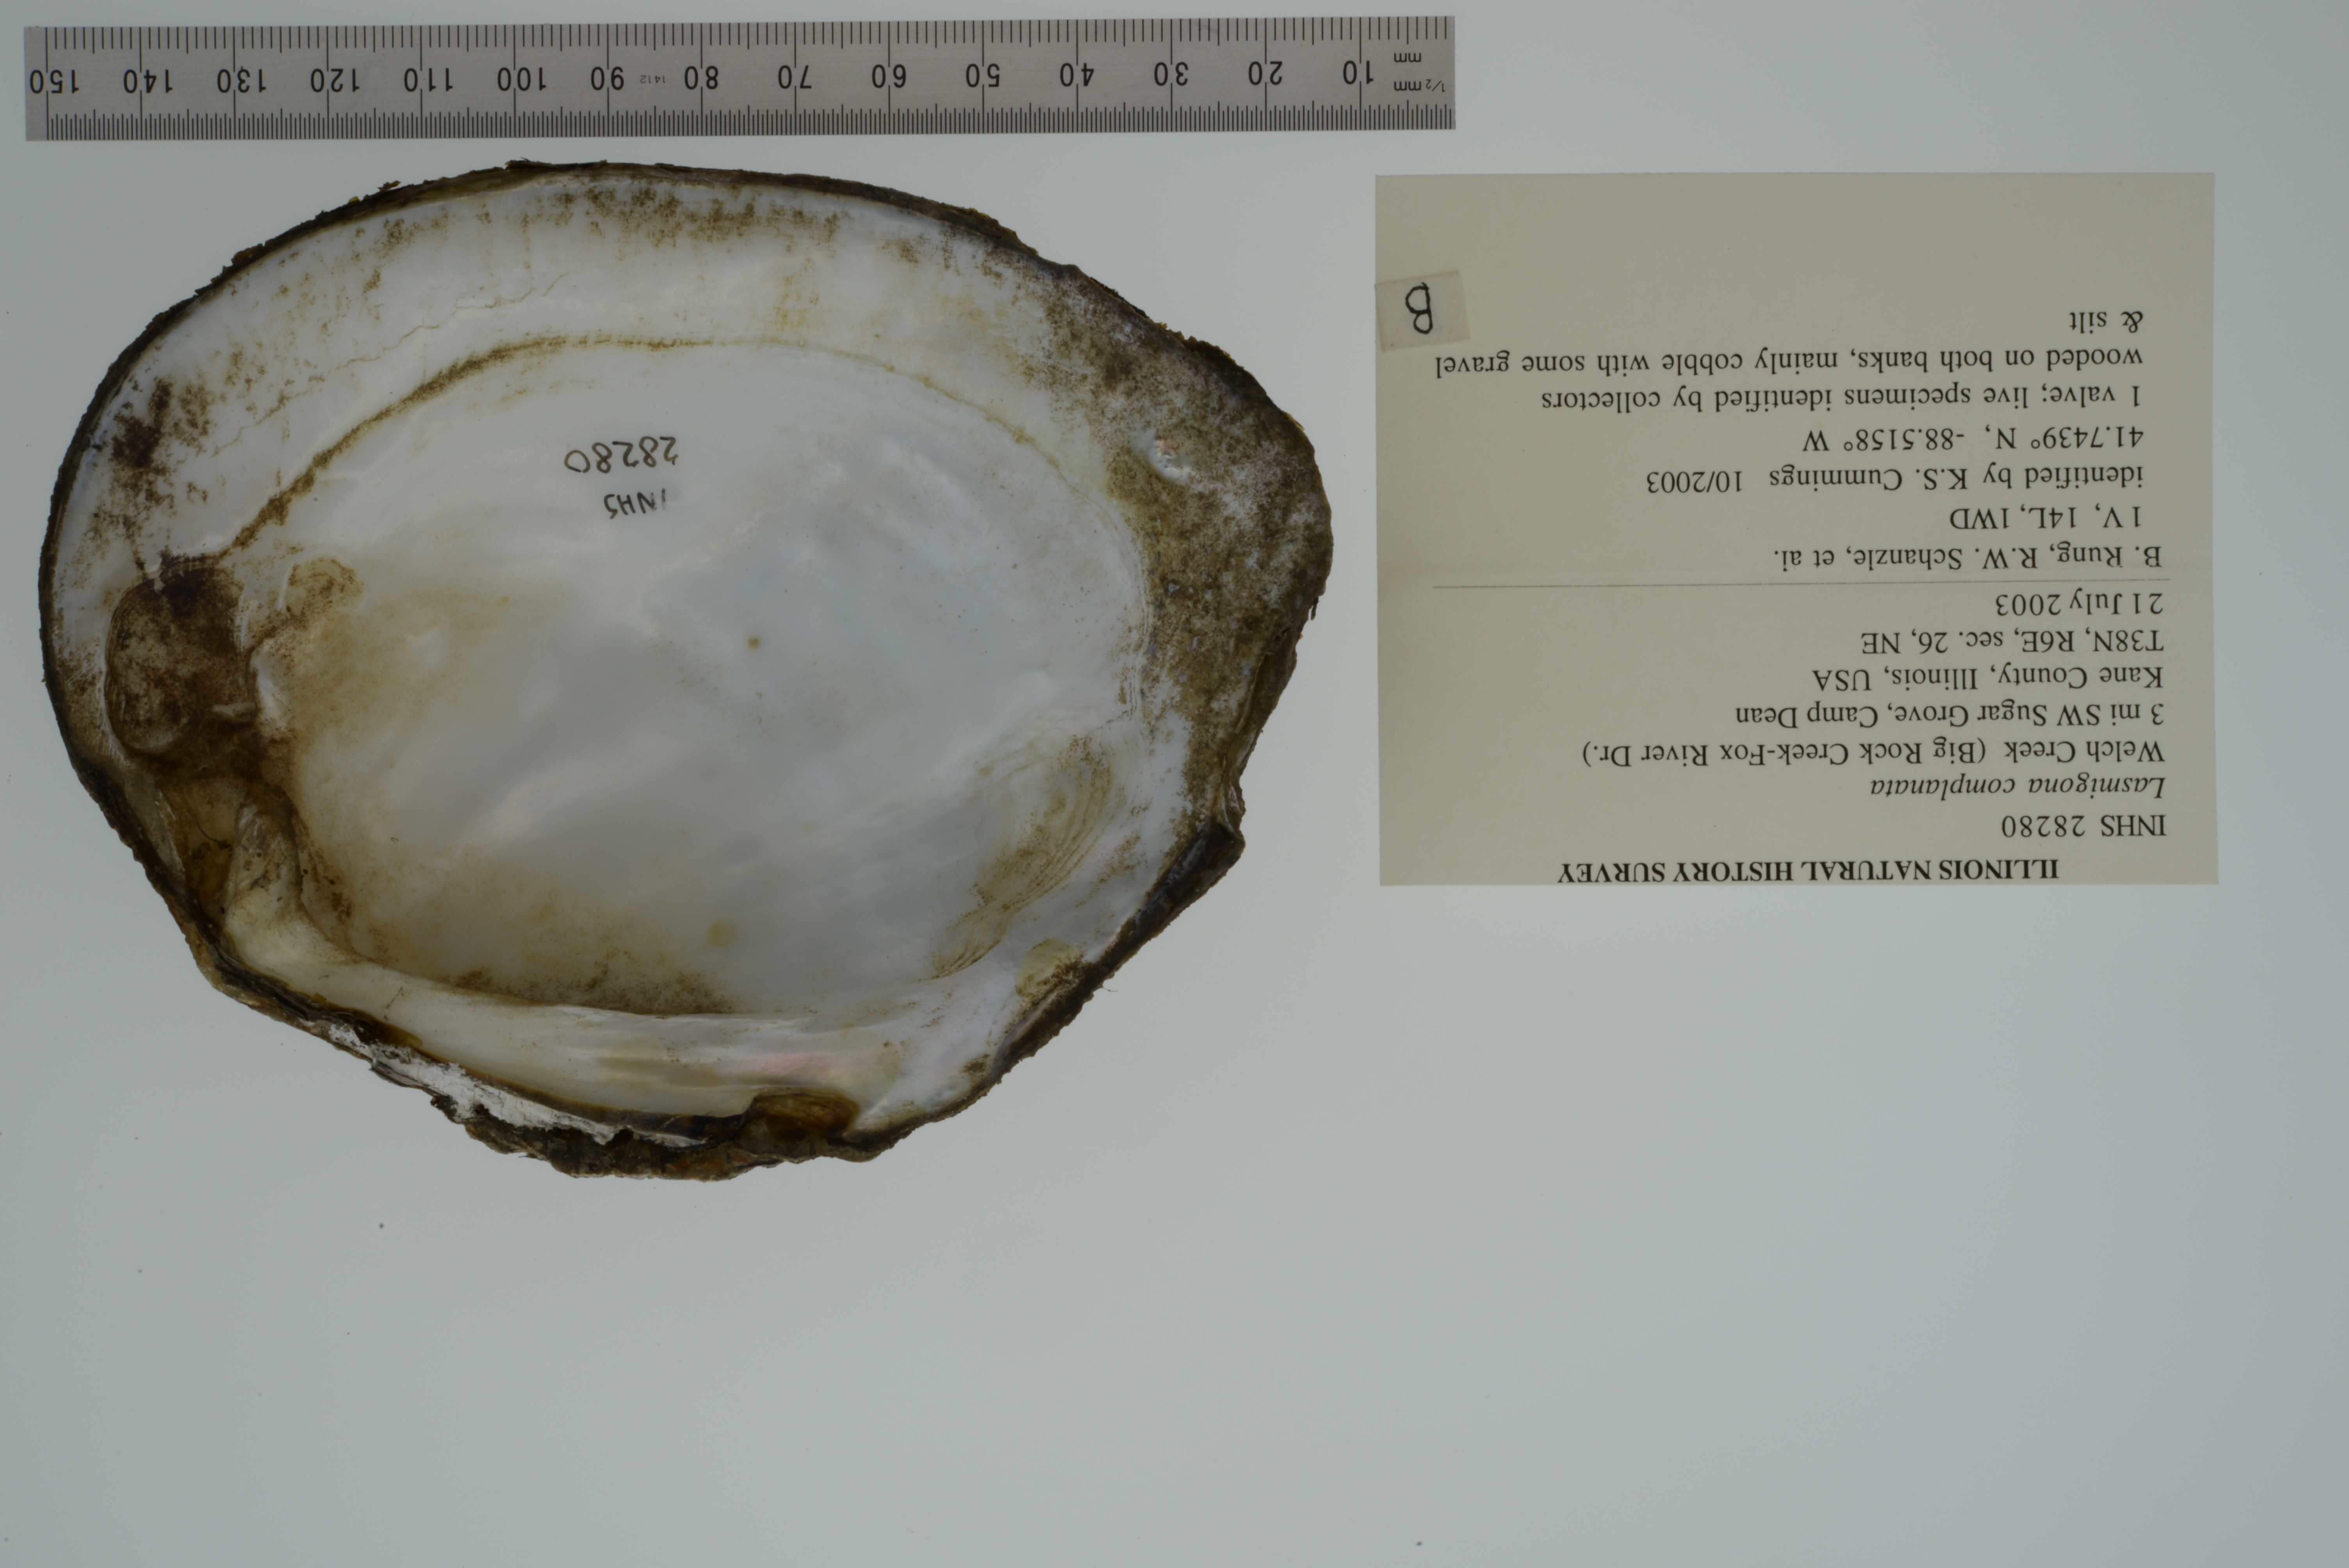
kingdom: Animalia
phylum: Mollusca
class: Bivalvia
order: Unionida
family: Unionidae
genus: Lasmigona
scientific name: Lasmigona complanata
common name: White heelsplitter
